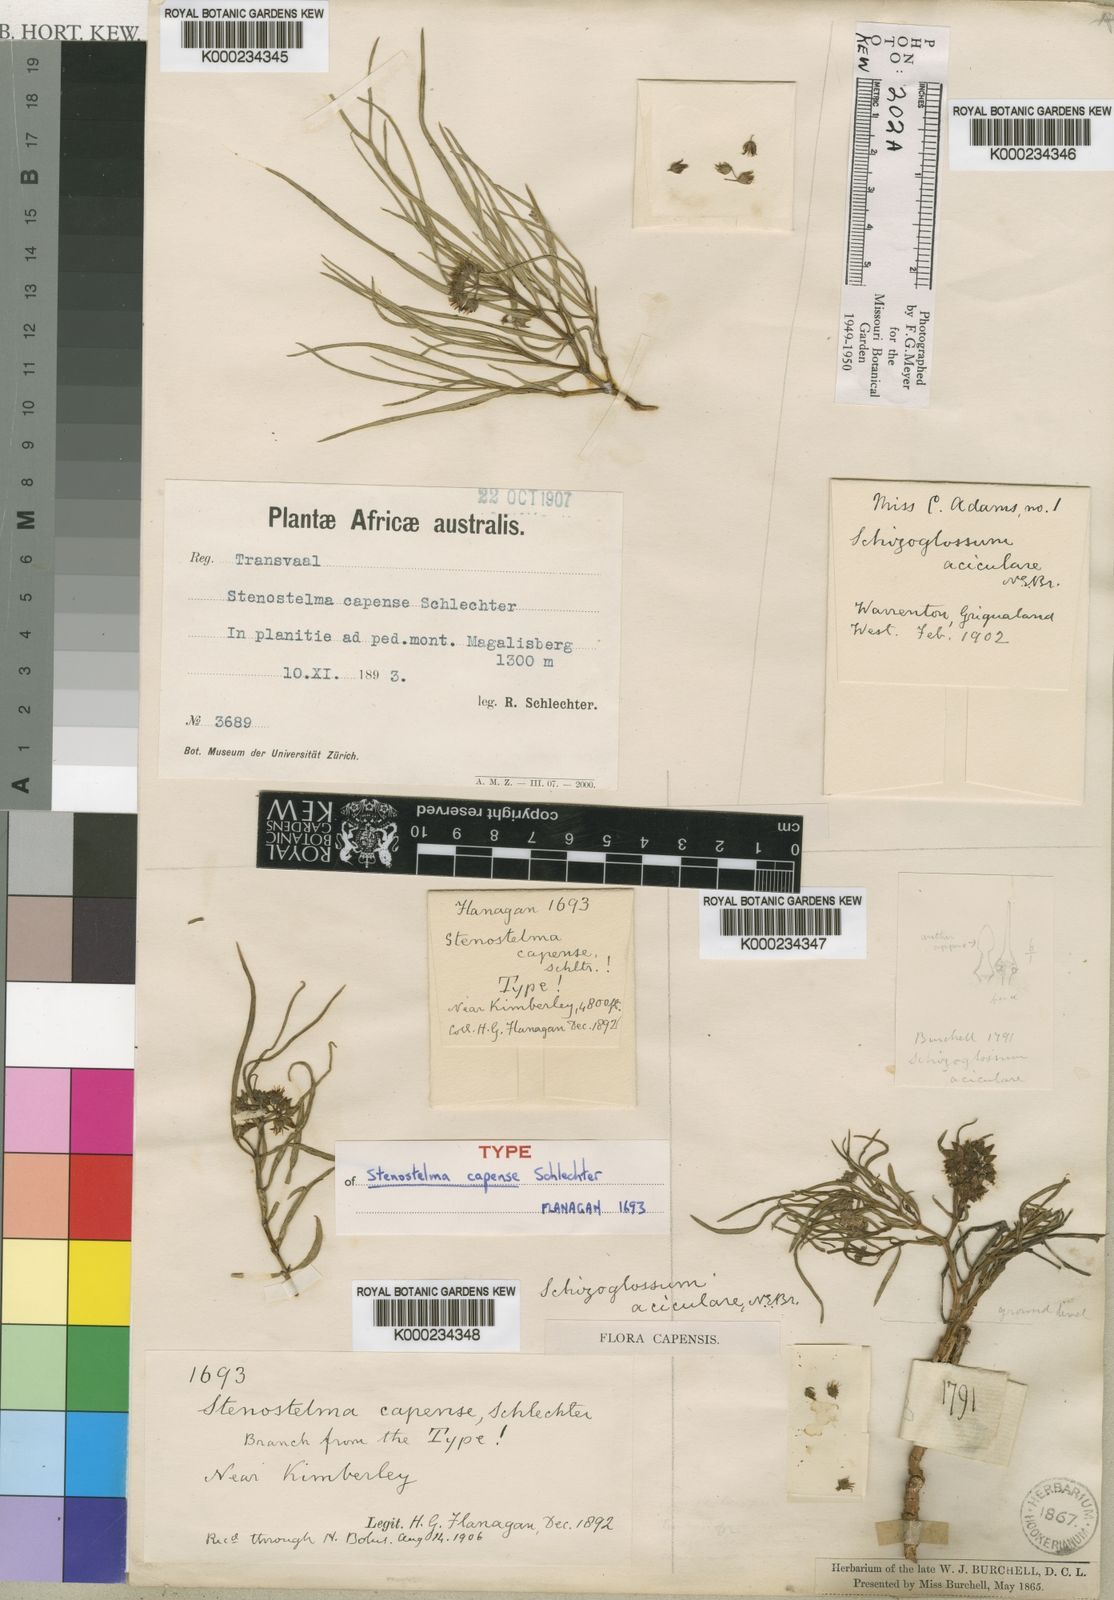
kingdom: Plantae
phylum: Tracheophyta
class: Magnoliopsida
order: Gentianales
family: Apocynaceae
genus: Stenostelma
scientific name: Stenostelma capense
